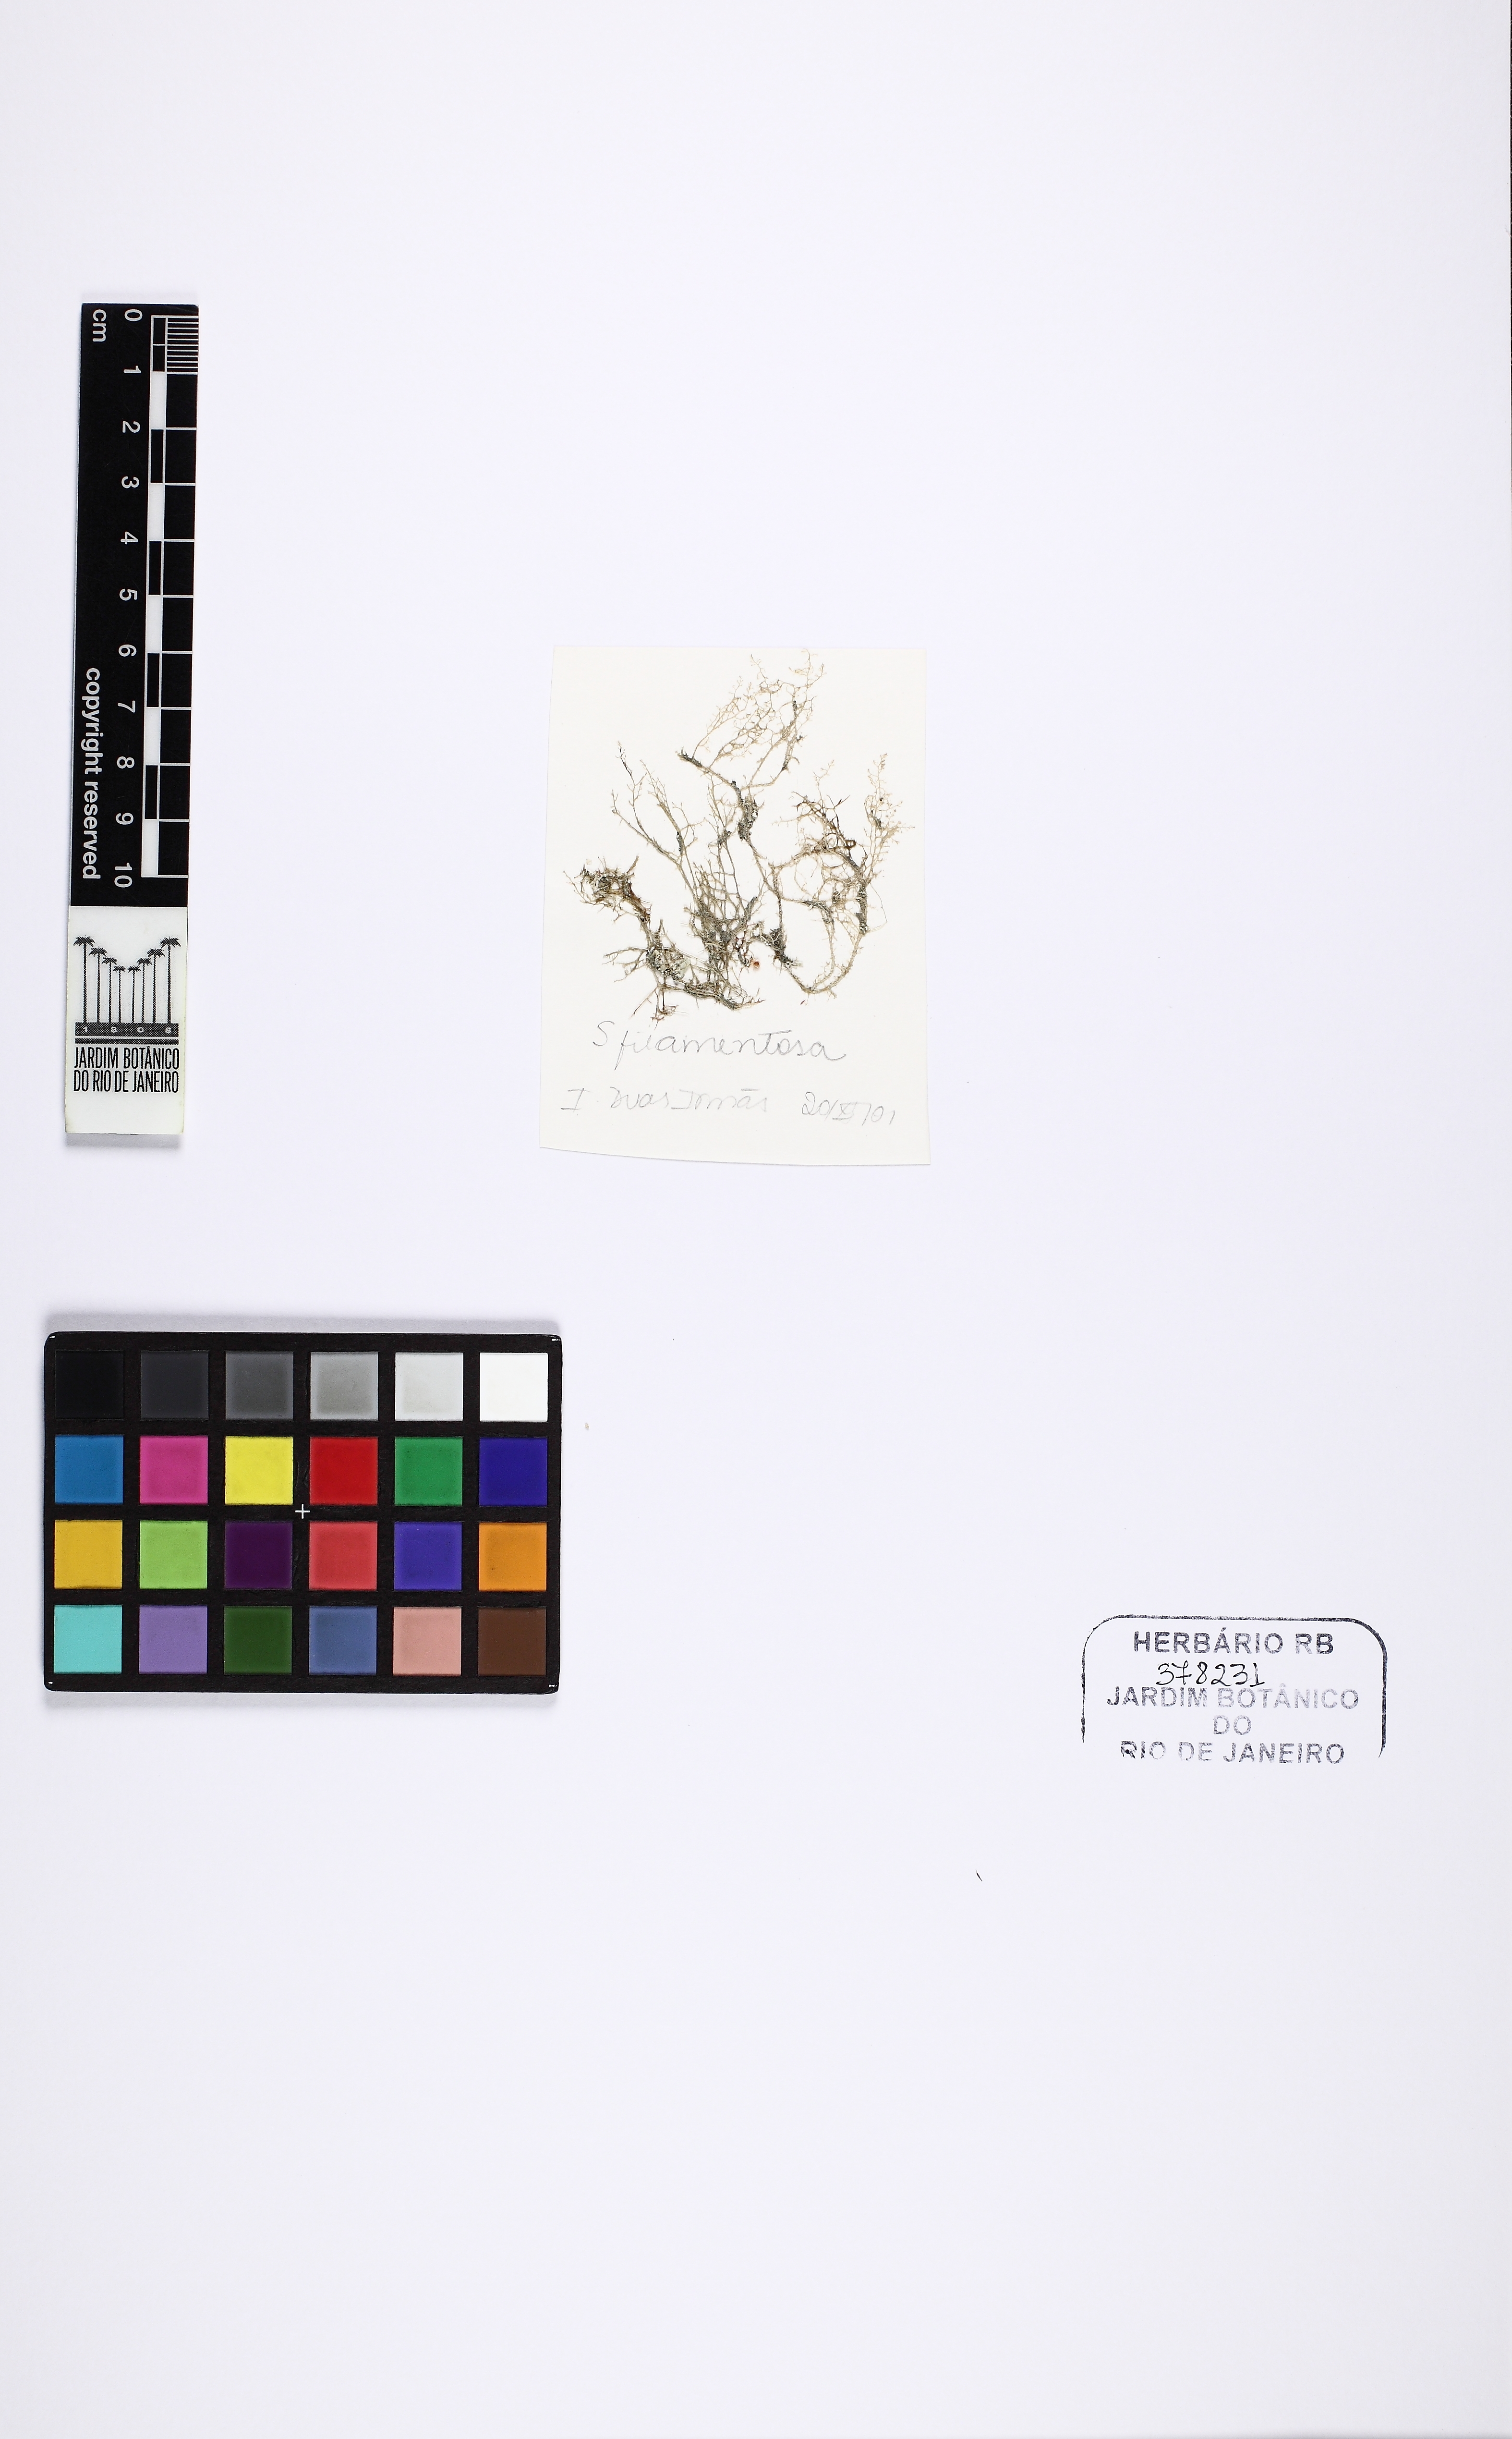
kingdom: Plantae
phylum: Rhodophyta
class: Florideophyceae
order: Ceramiales
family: Spyridiaceae
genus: Spyridia
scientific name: Spyridia filamentosa
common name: Red algae
